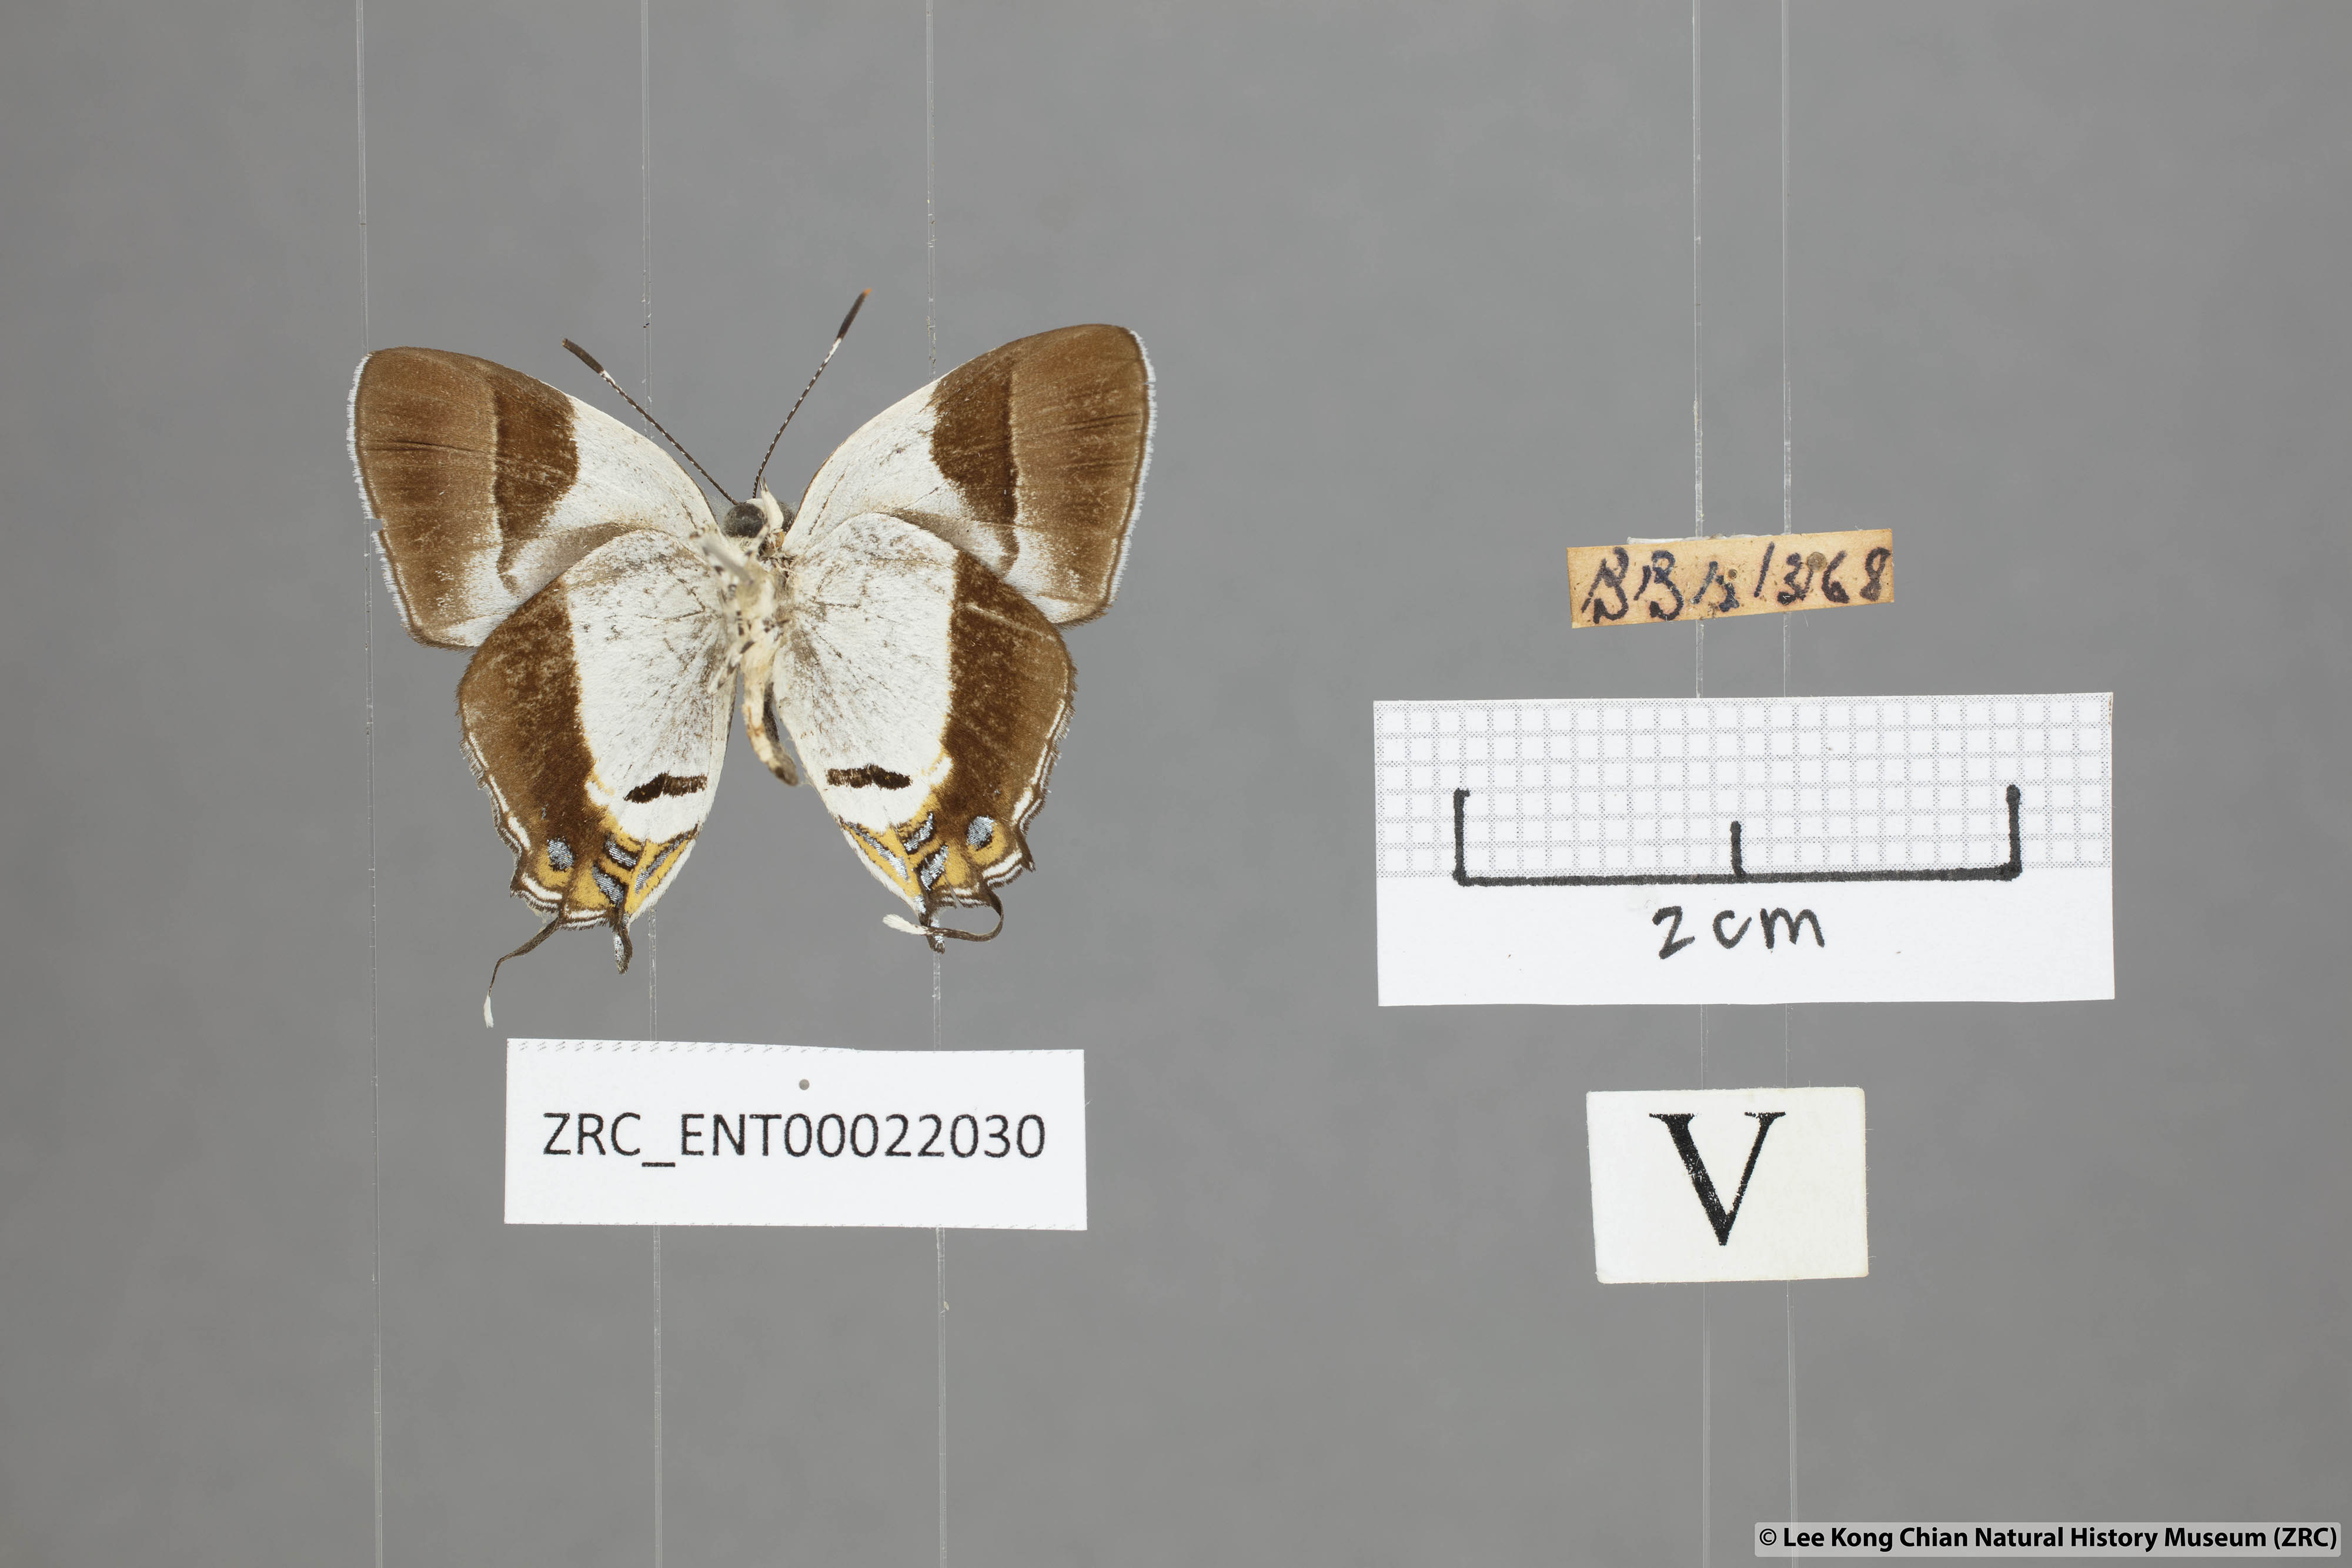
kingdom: Animalia
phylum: Arthropoda
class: Insecta
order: Lepidoptera
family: Lycaenidae
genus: Sithon
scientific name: Sithon nedymond
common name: Plush
